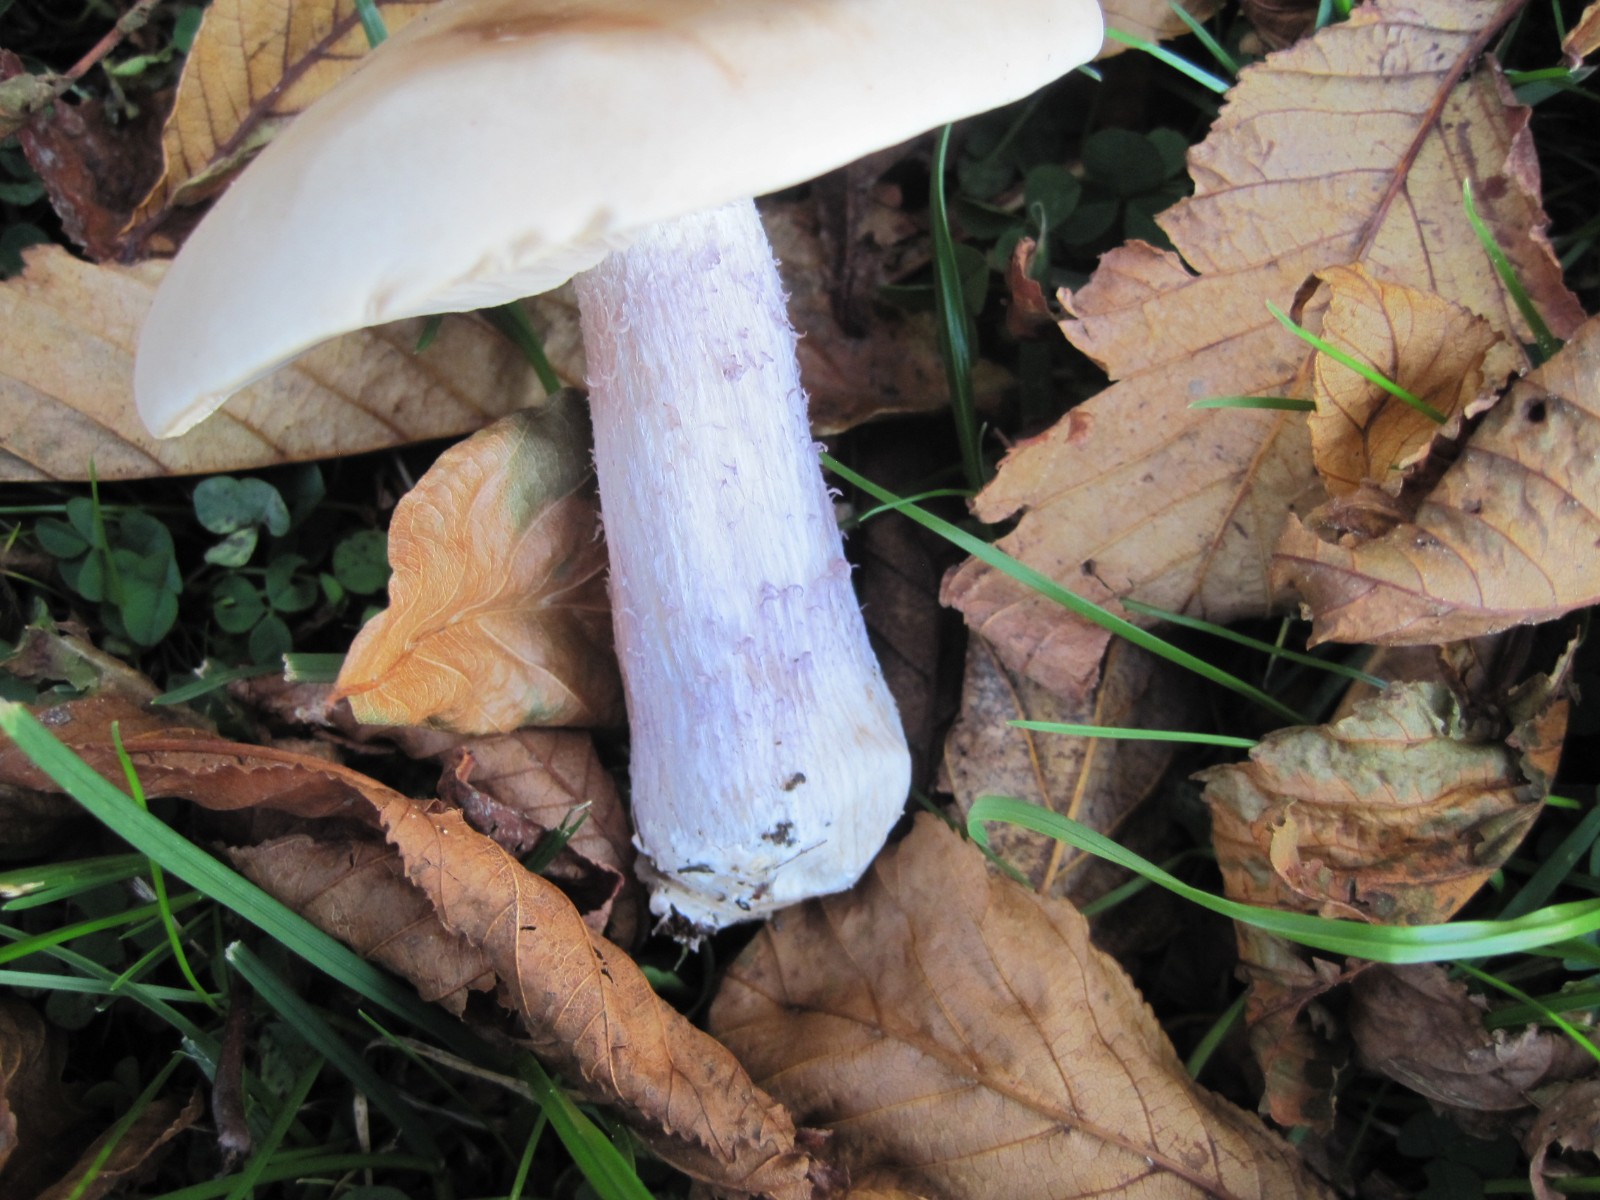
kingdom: Fungi
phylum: Basidiomycota
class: Agaricomycetes
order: Agaricales
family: Tricholomataceae
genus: Lepista
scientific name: Lepista personata
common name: bleg hekseringshat
